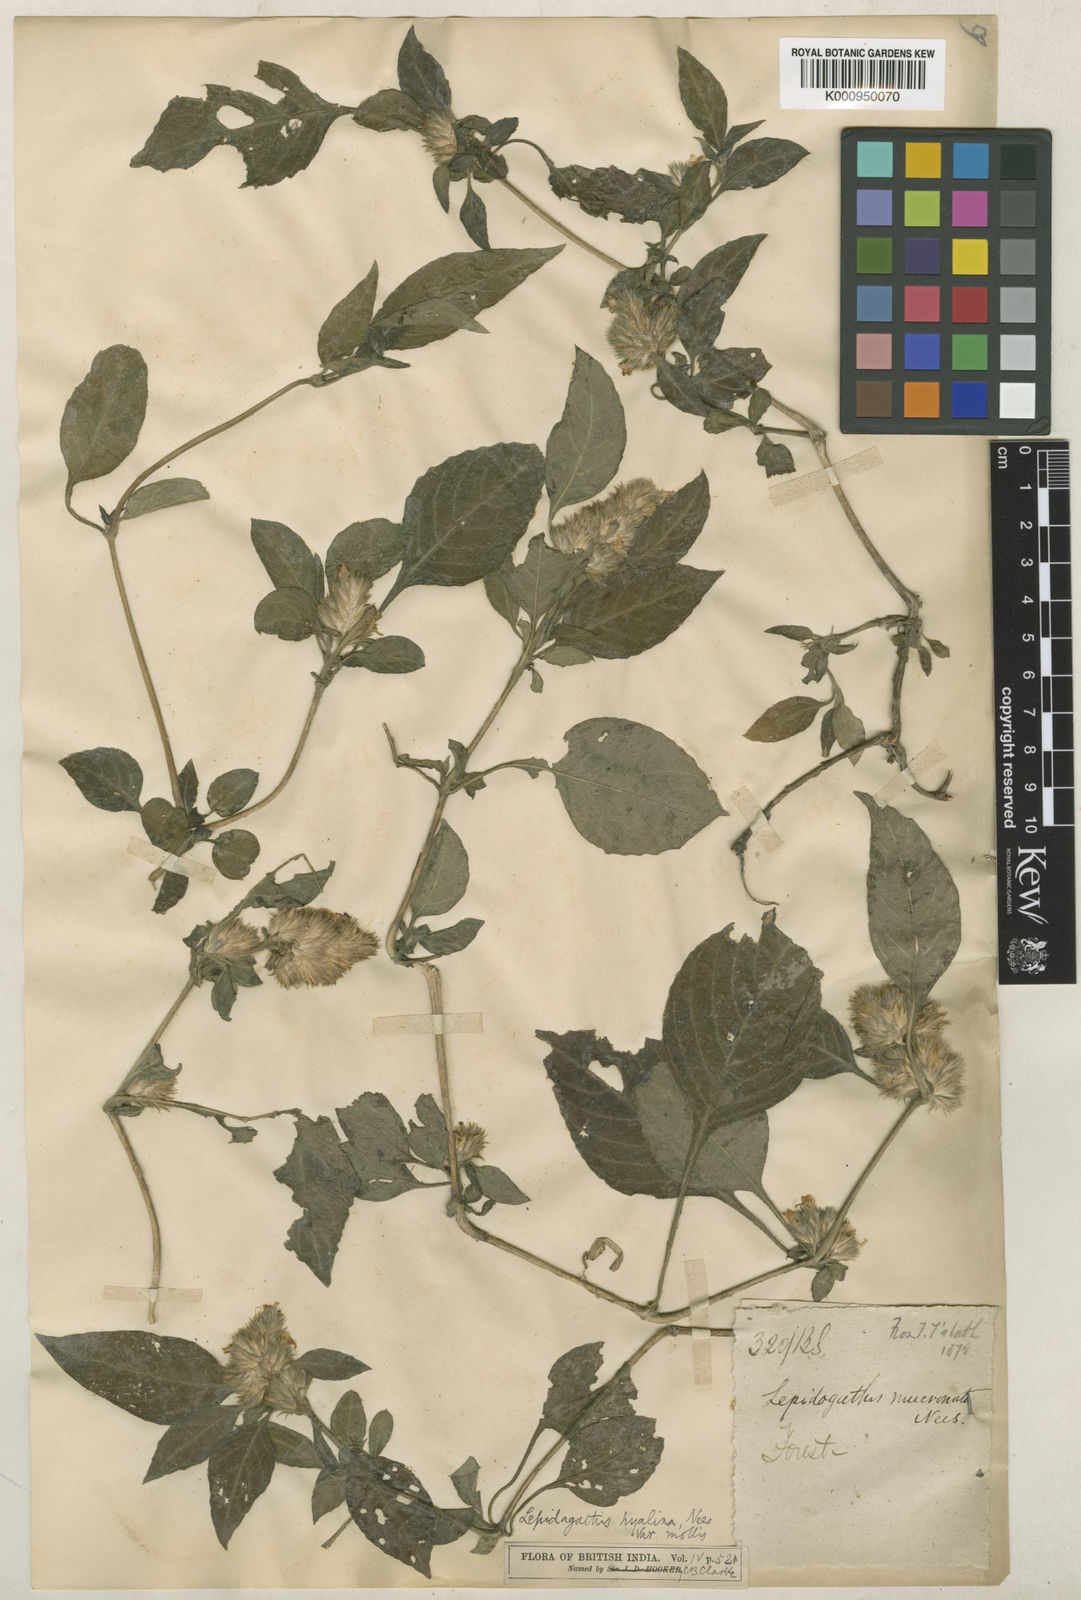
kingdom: Plantae
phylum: Tracheophyta
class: Magnoliopsida
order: Lamiales
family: Acanthaceae
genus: Lepidagathis
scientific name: Lepidagathis incurva
